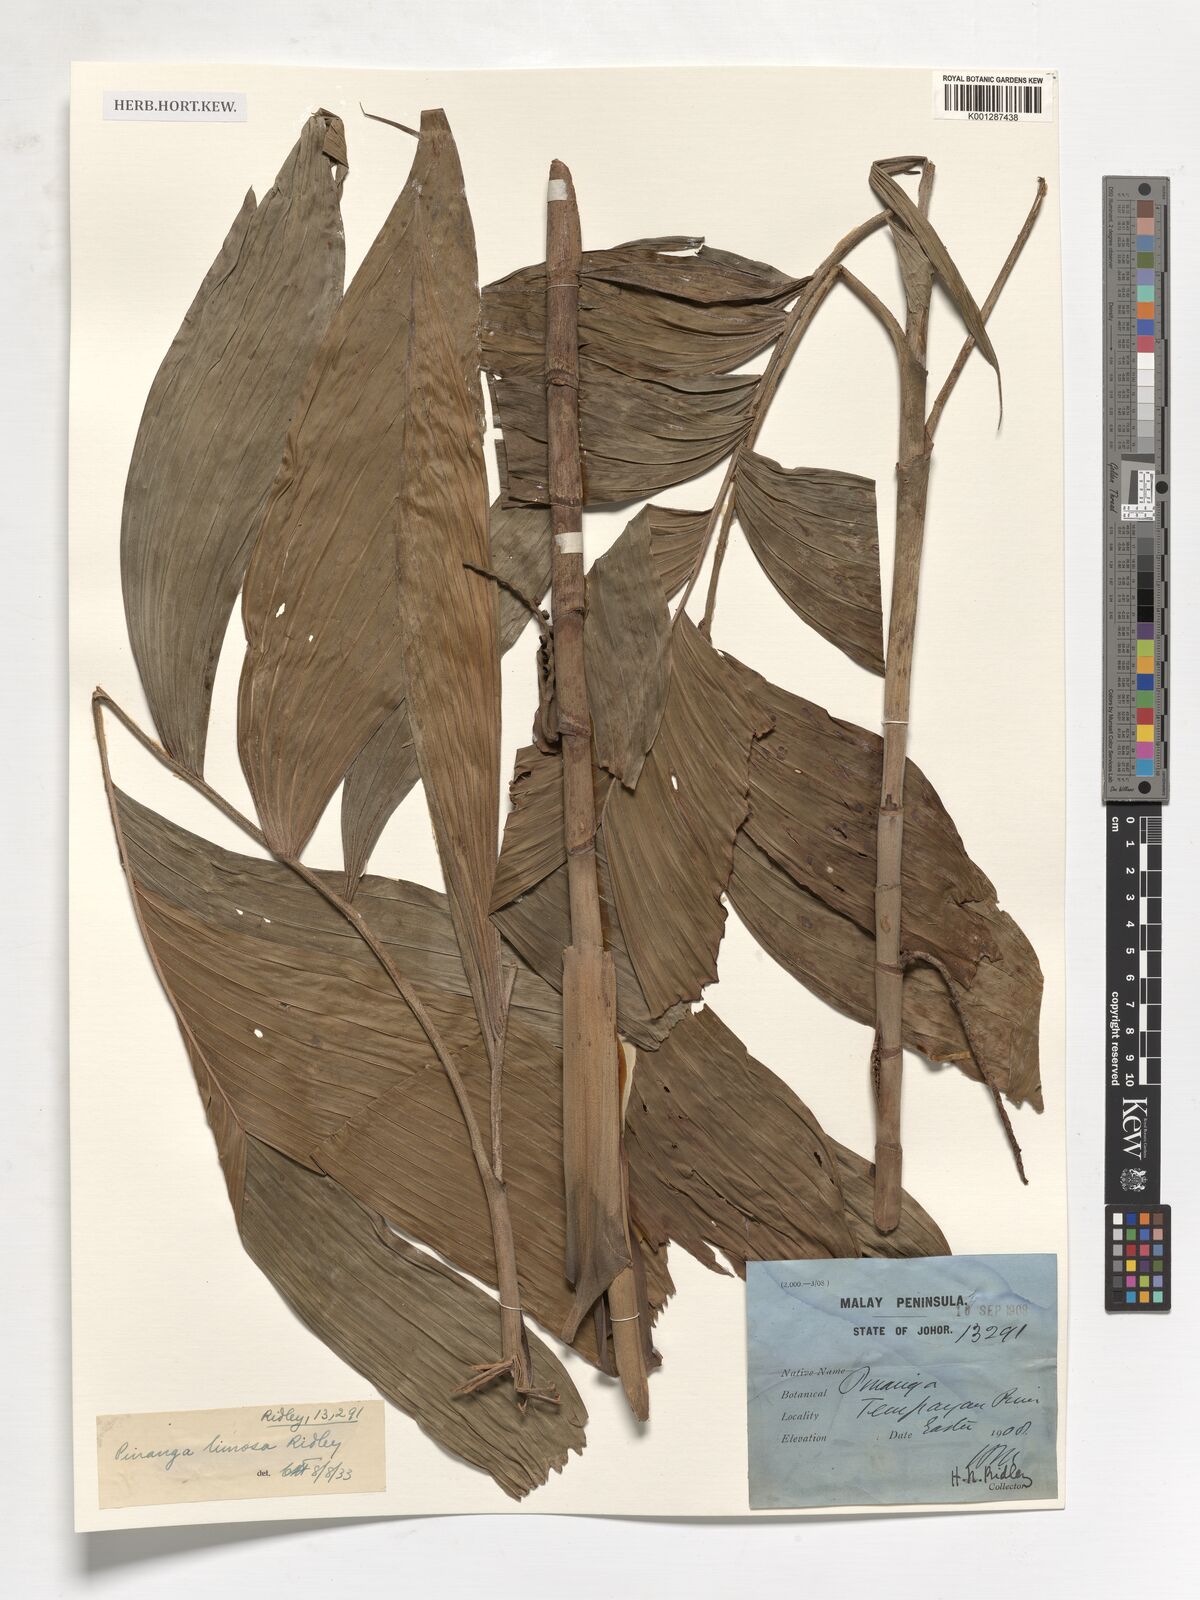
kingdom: Plantae
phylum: Tracheophyta
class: Liliopsida
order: Arecales
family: Arecaceae
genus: Pinanga
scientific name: Pinanga limosa
